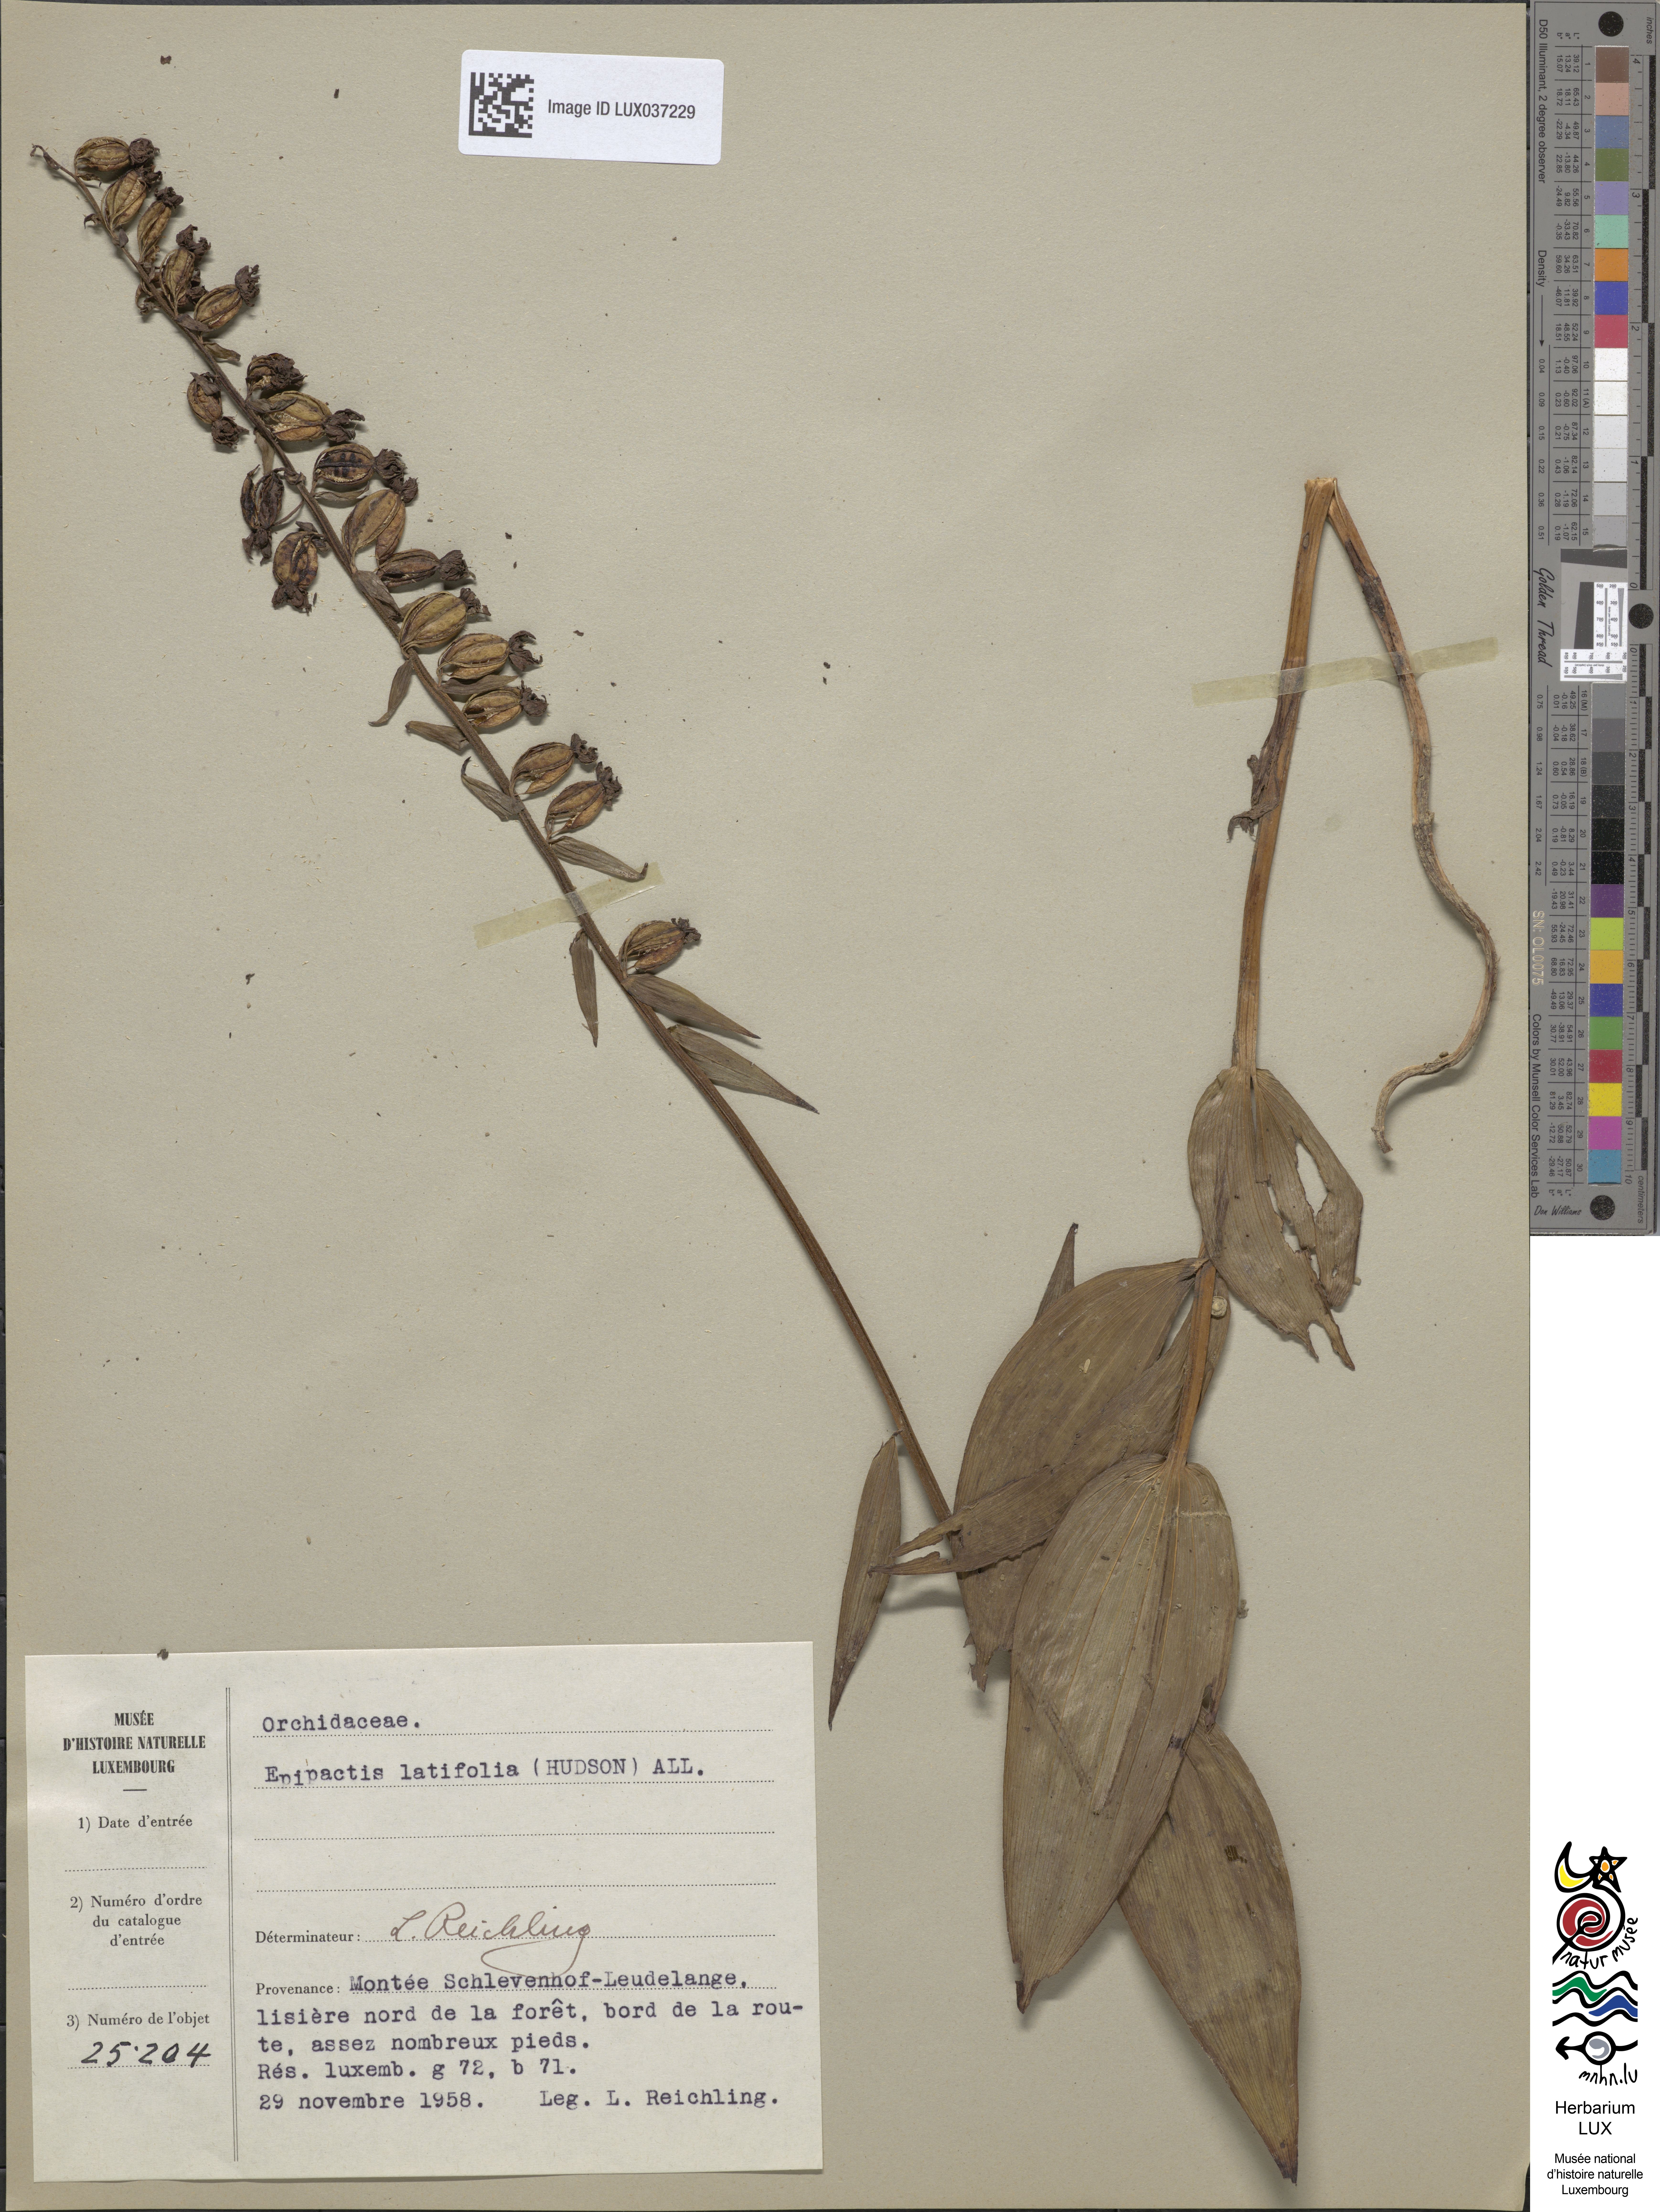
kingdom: Plantae
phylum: Tracheophyta
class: Liliopsida
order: Asparagales
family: Orchidaceae
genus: Epipactis
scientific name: Epipactis helleborine
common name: Broad-leaved helleborine
